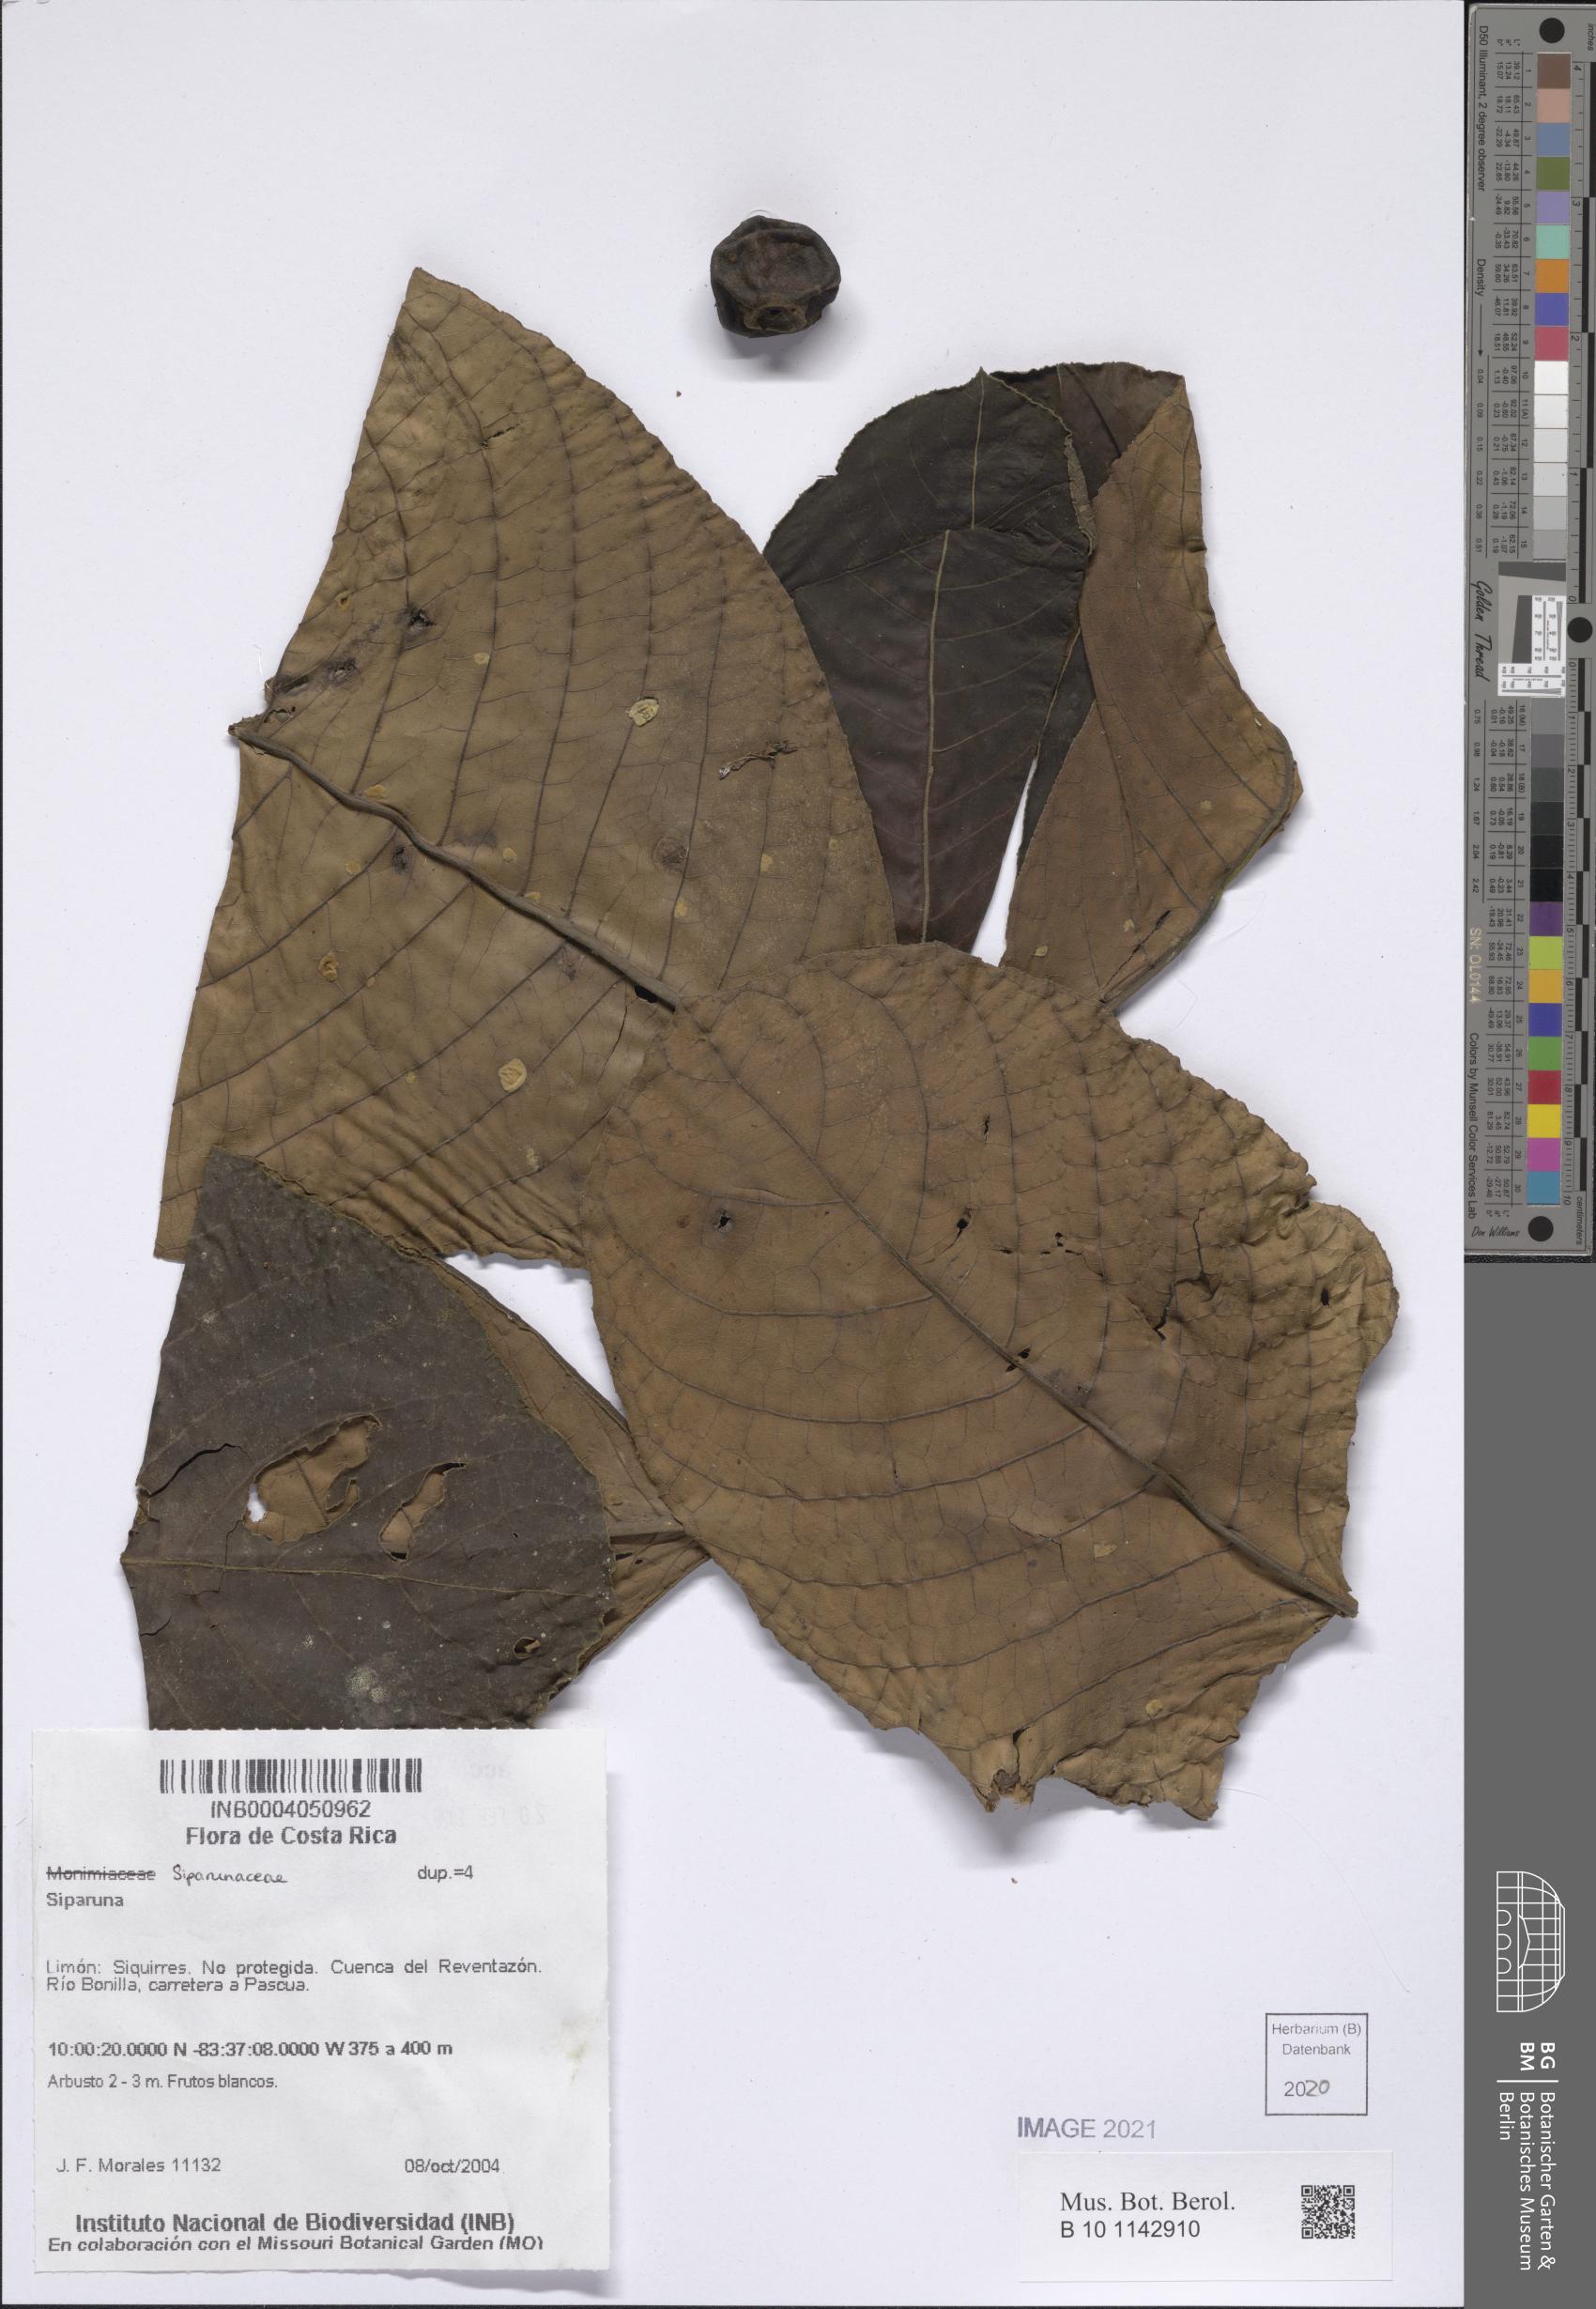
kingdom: Plantae
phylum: Tracheophyta
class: Magnoliopsida
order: Laurales
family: Siparunaceae
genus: Siparuna
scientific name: Siparuna
